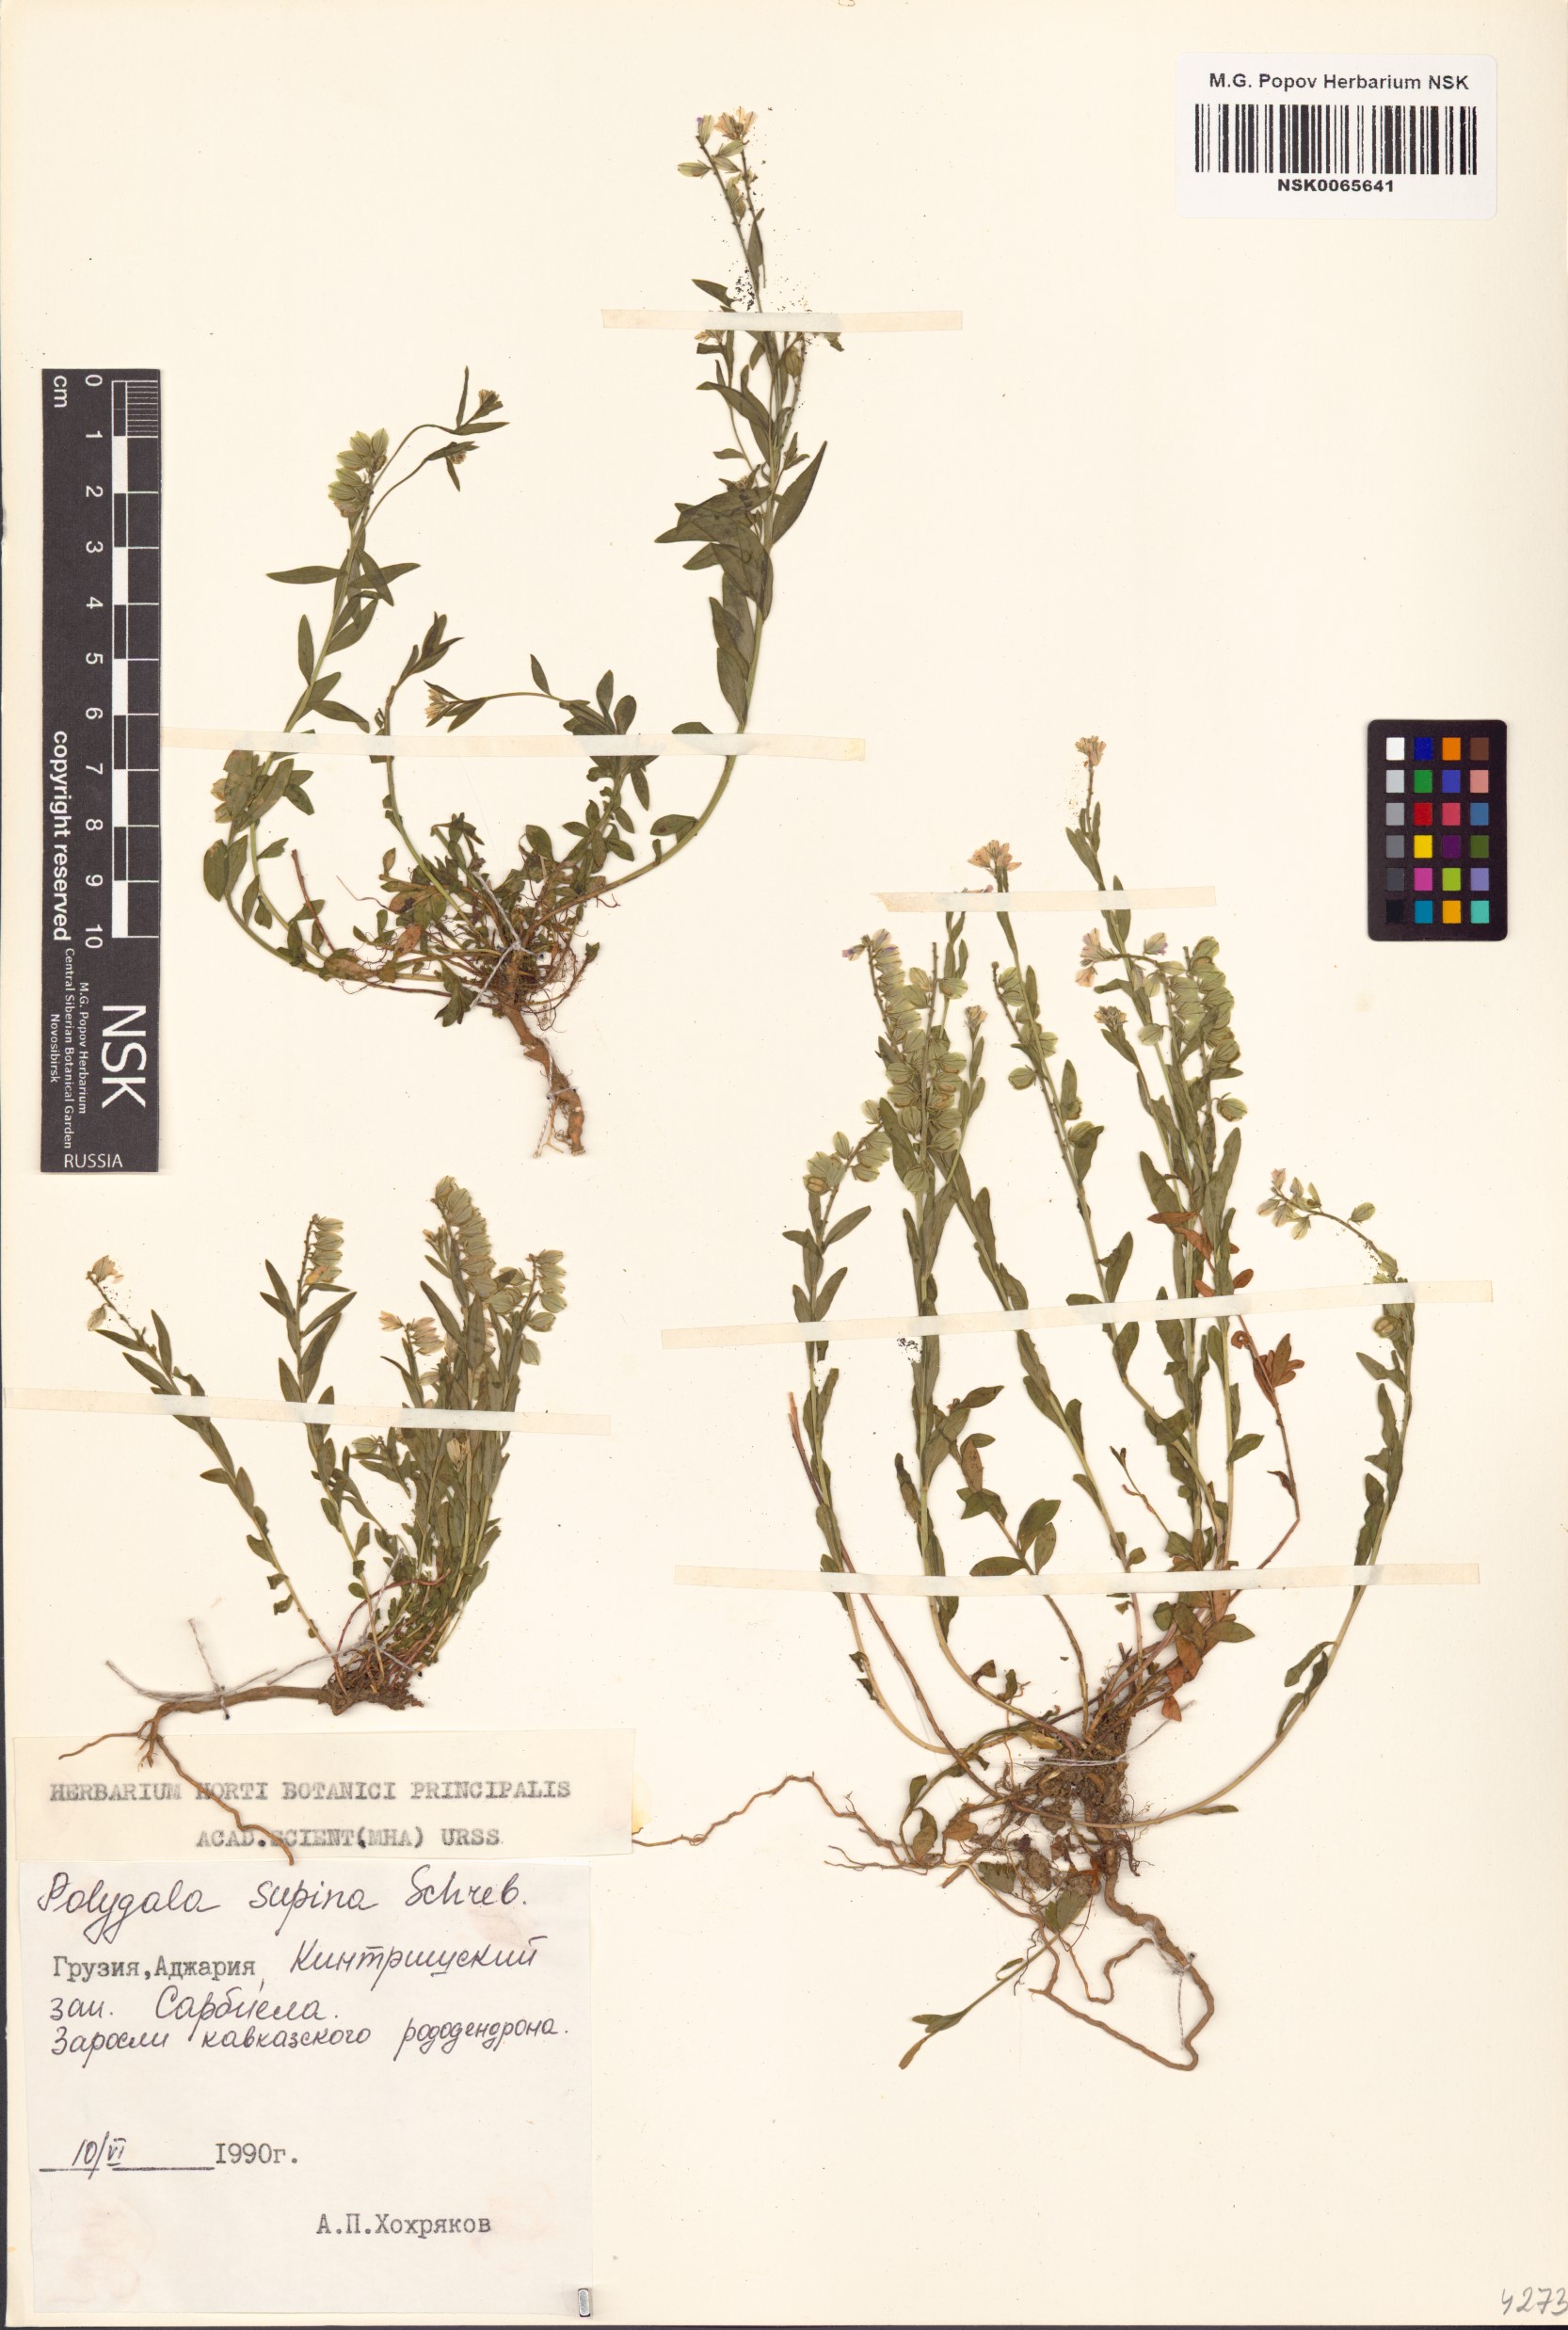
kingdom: Plantae
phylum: Tracheophyta
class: Magnoliopsida
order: Fabales
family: Polygalaceae
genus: Polygala
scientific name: Polygala supina
